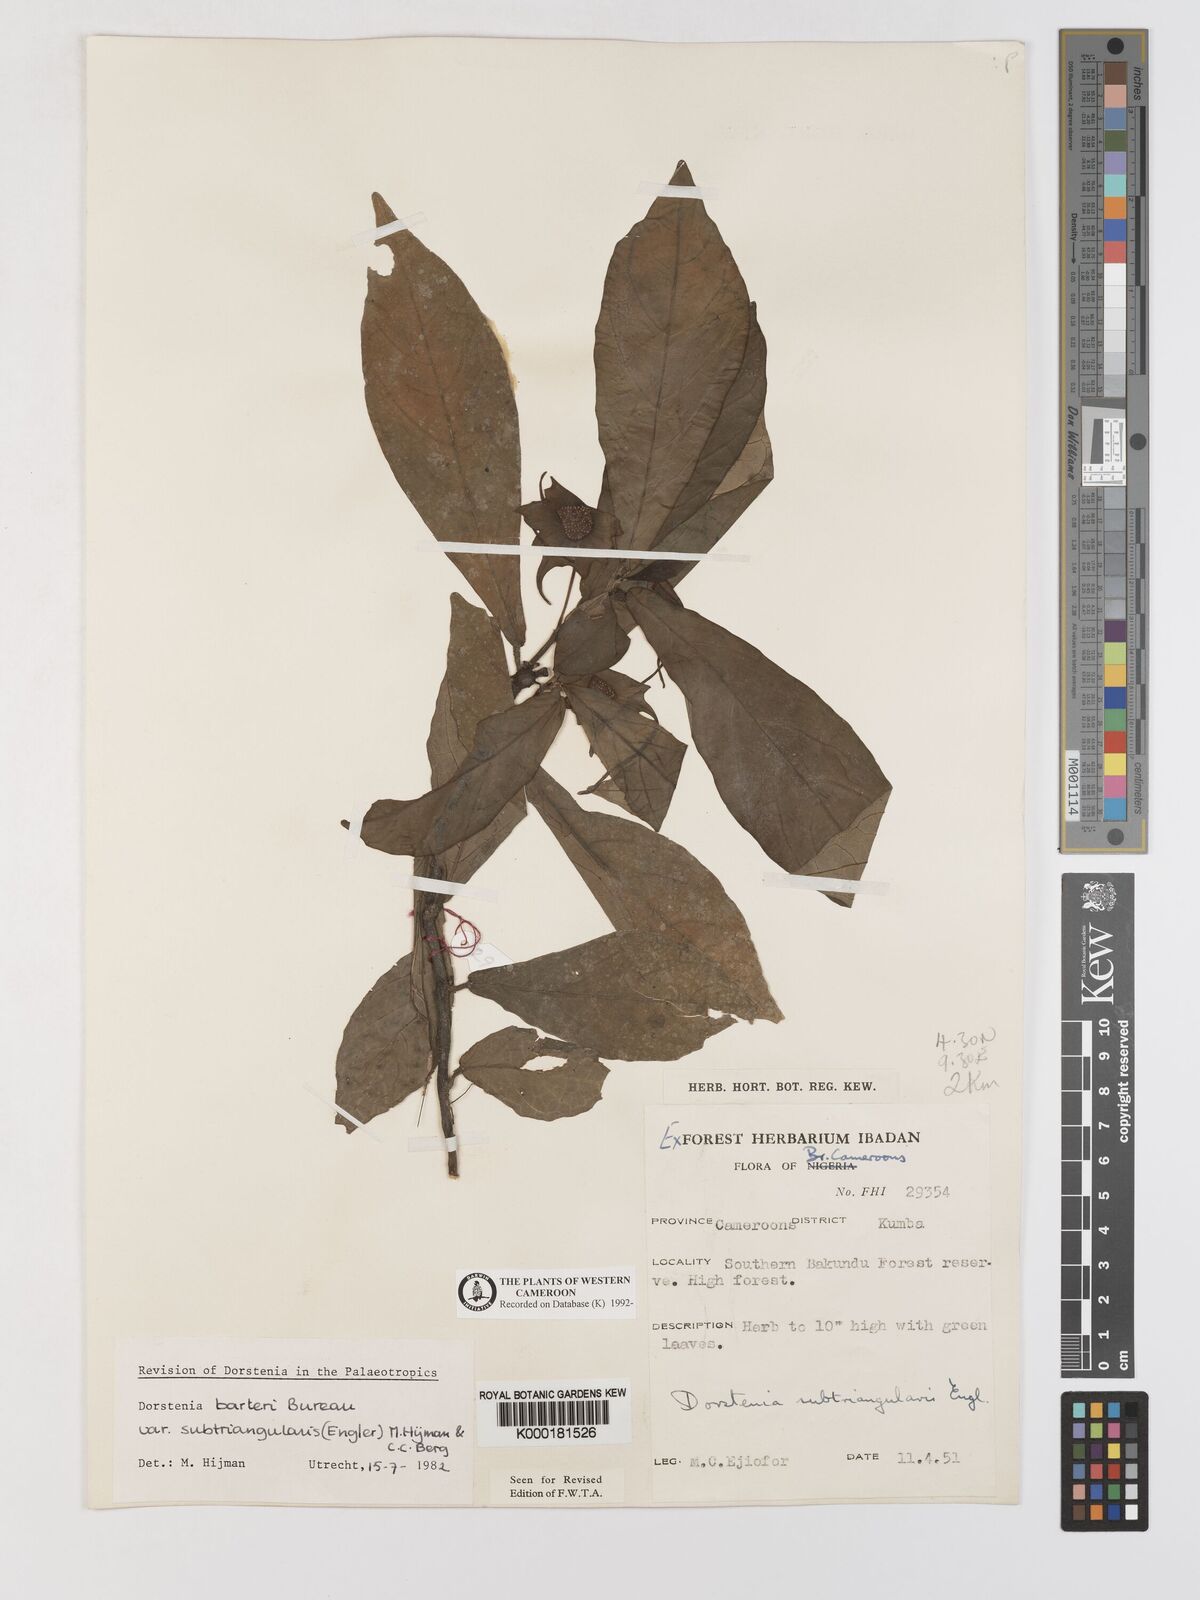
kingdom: Plantae
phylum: Tracheophyta
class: Magnoliopsida
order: Rosales
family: Moraceae
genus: Dorstenia
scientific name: Dorstenia barteri
